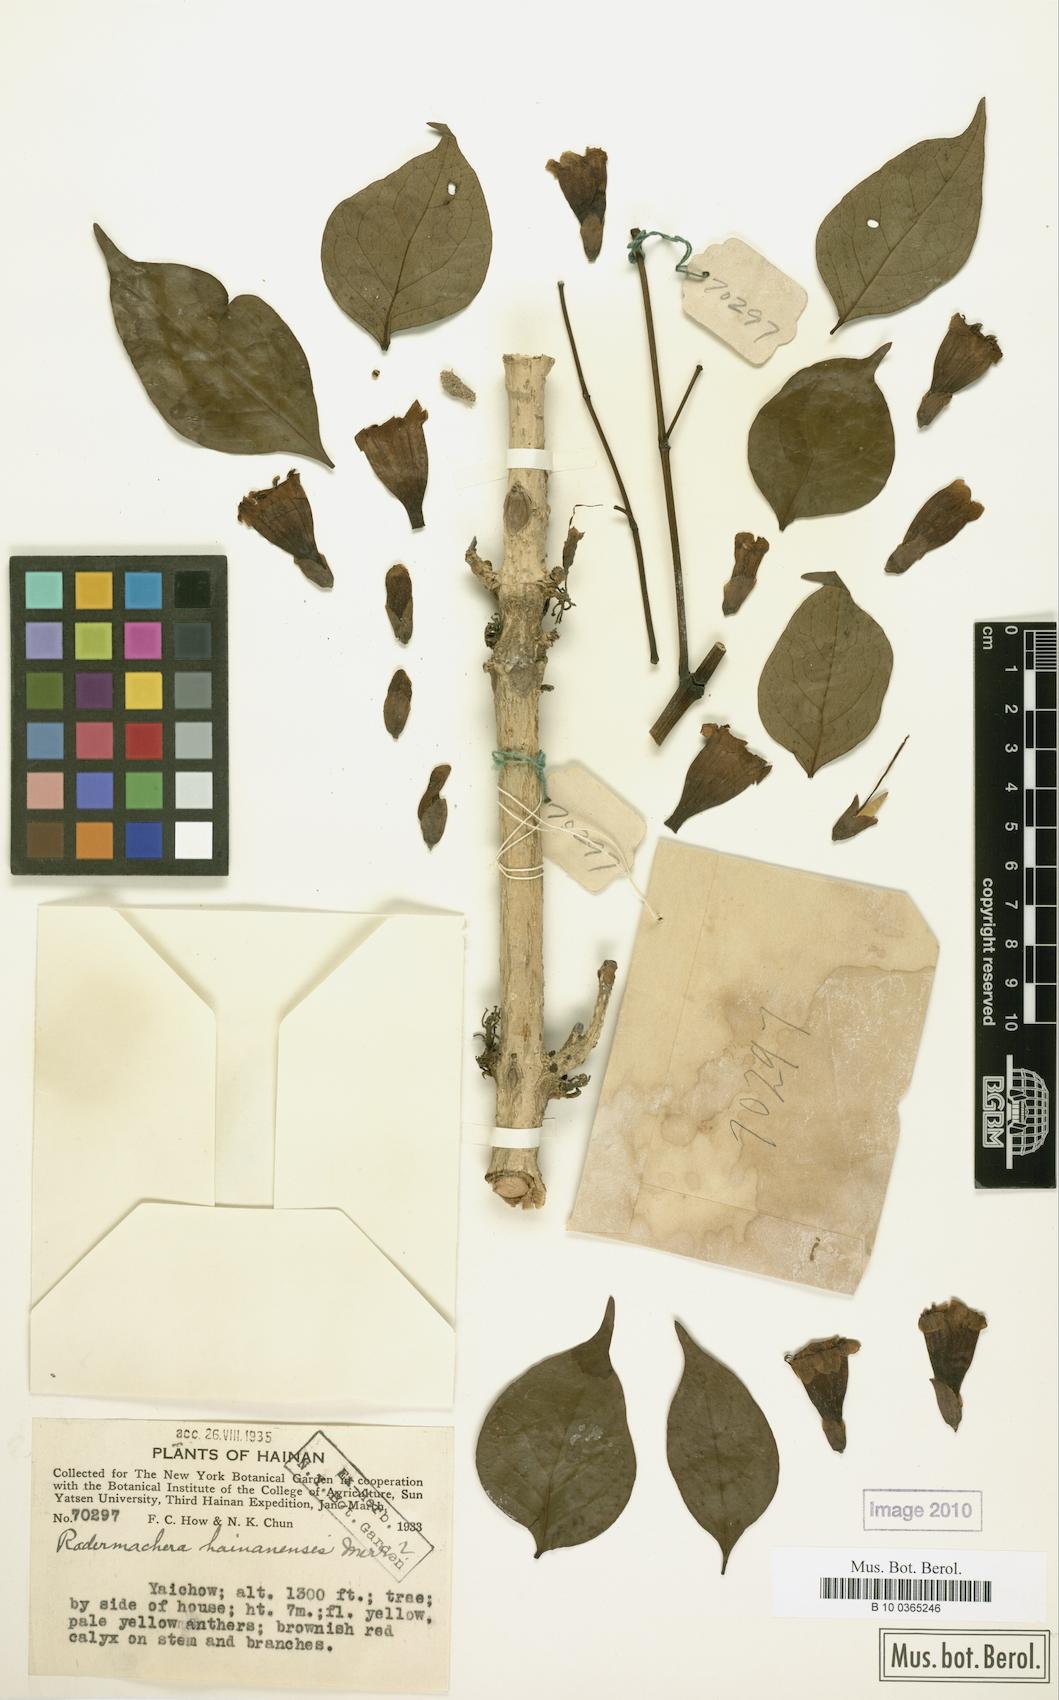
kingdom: Plantae
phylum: Tracheophyta
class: Magnoliopsida
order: Lamiales
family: Bignoniaceae
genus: Radermachera
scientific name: Radermachera hainanensis
